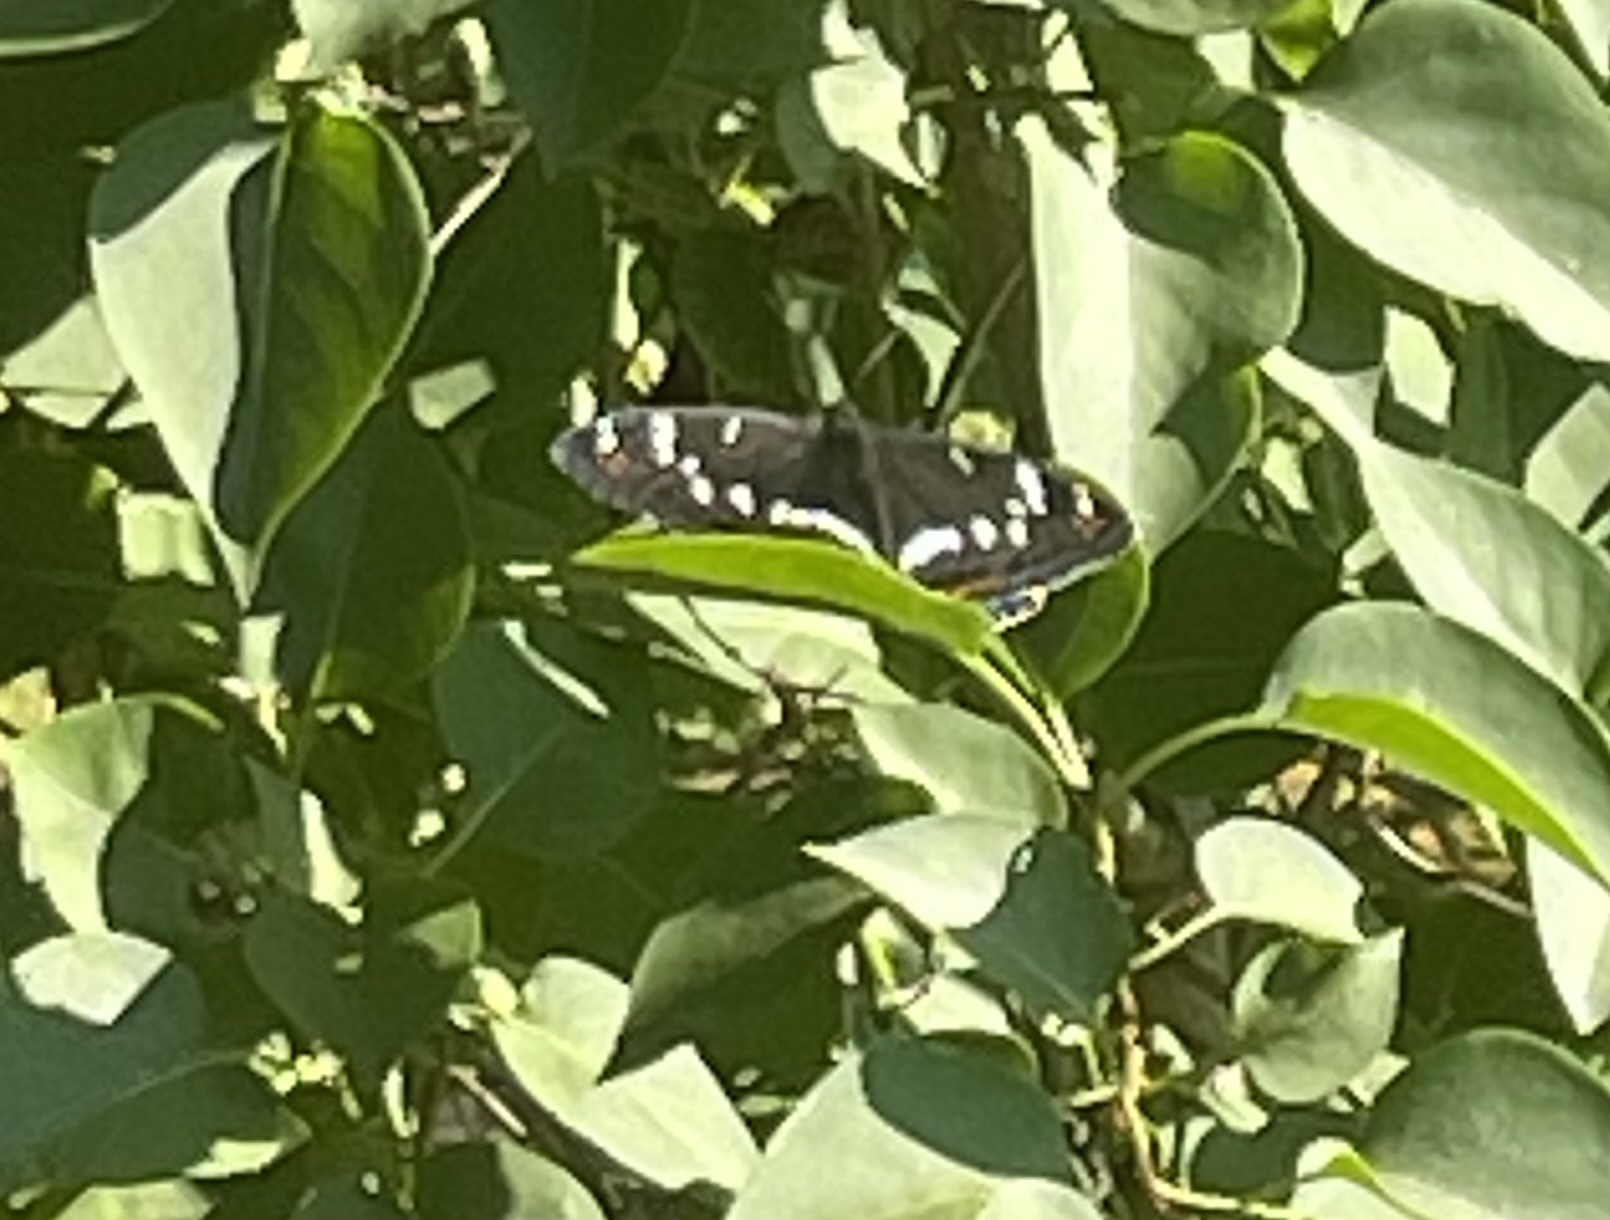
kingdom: Animalia
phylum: Arthropoda
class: Insecta
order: Lepidoptera
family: Nymphalidae
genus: Limenitis
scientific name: Limenitis populi
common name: Poplar admiral
